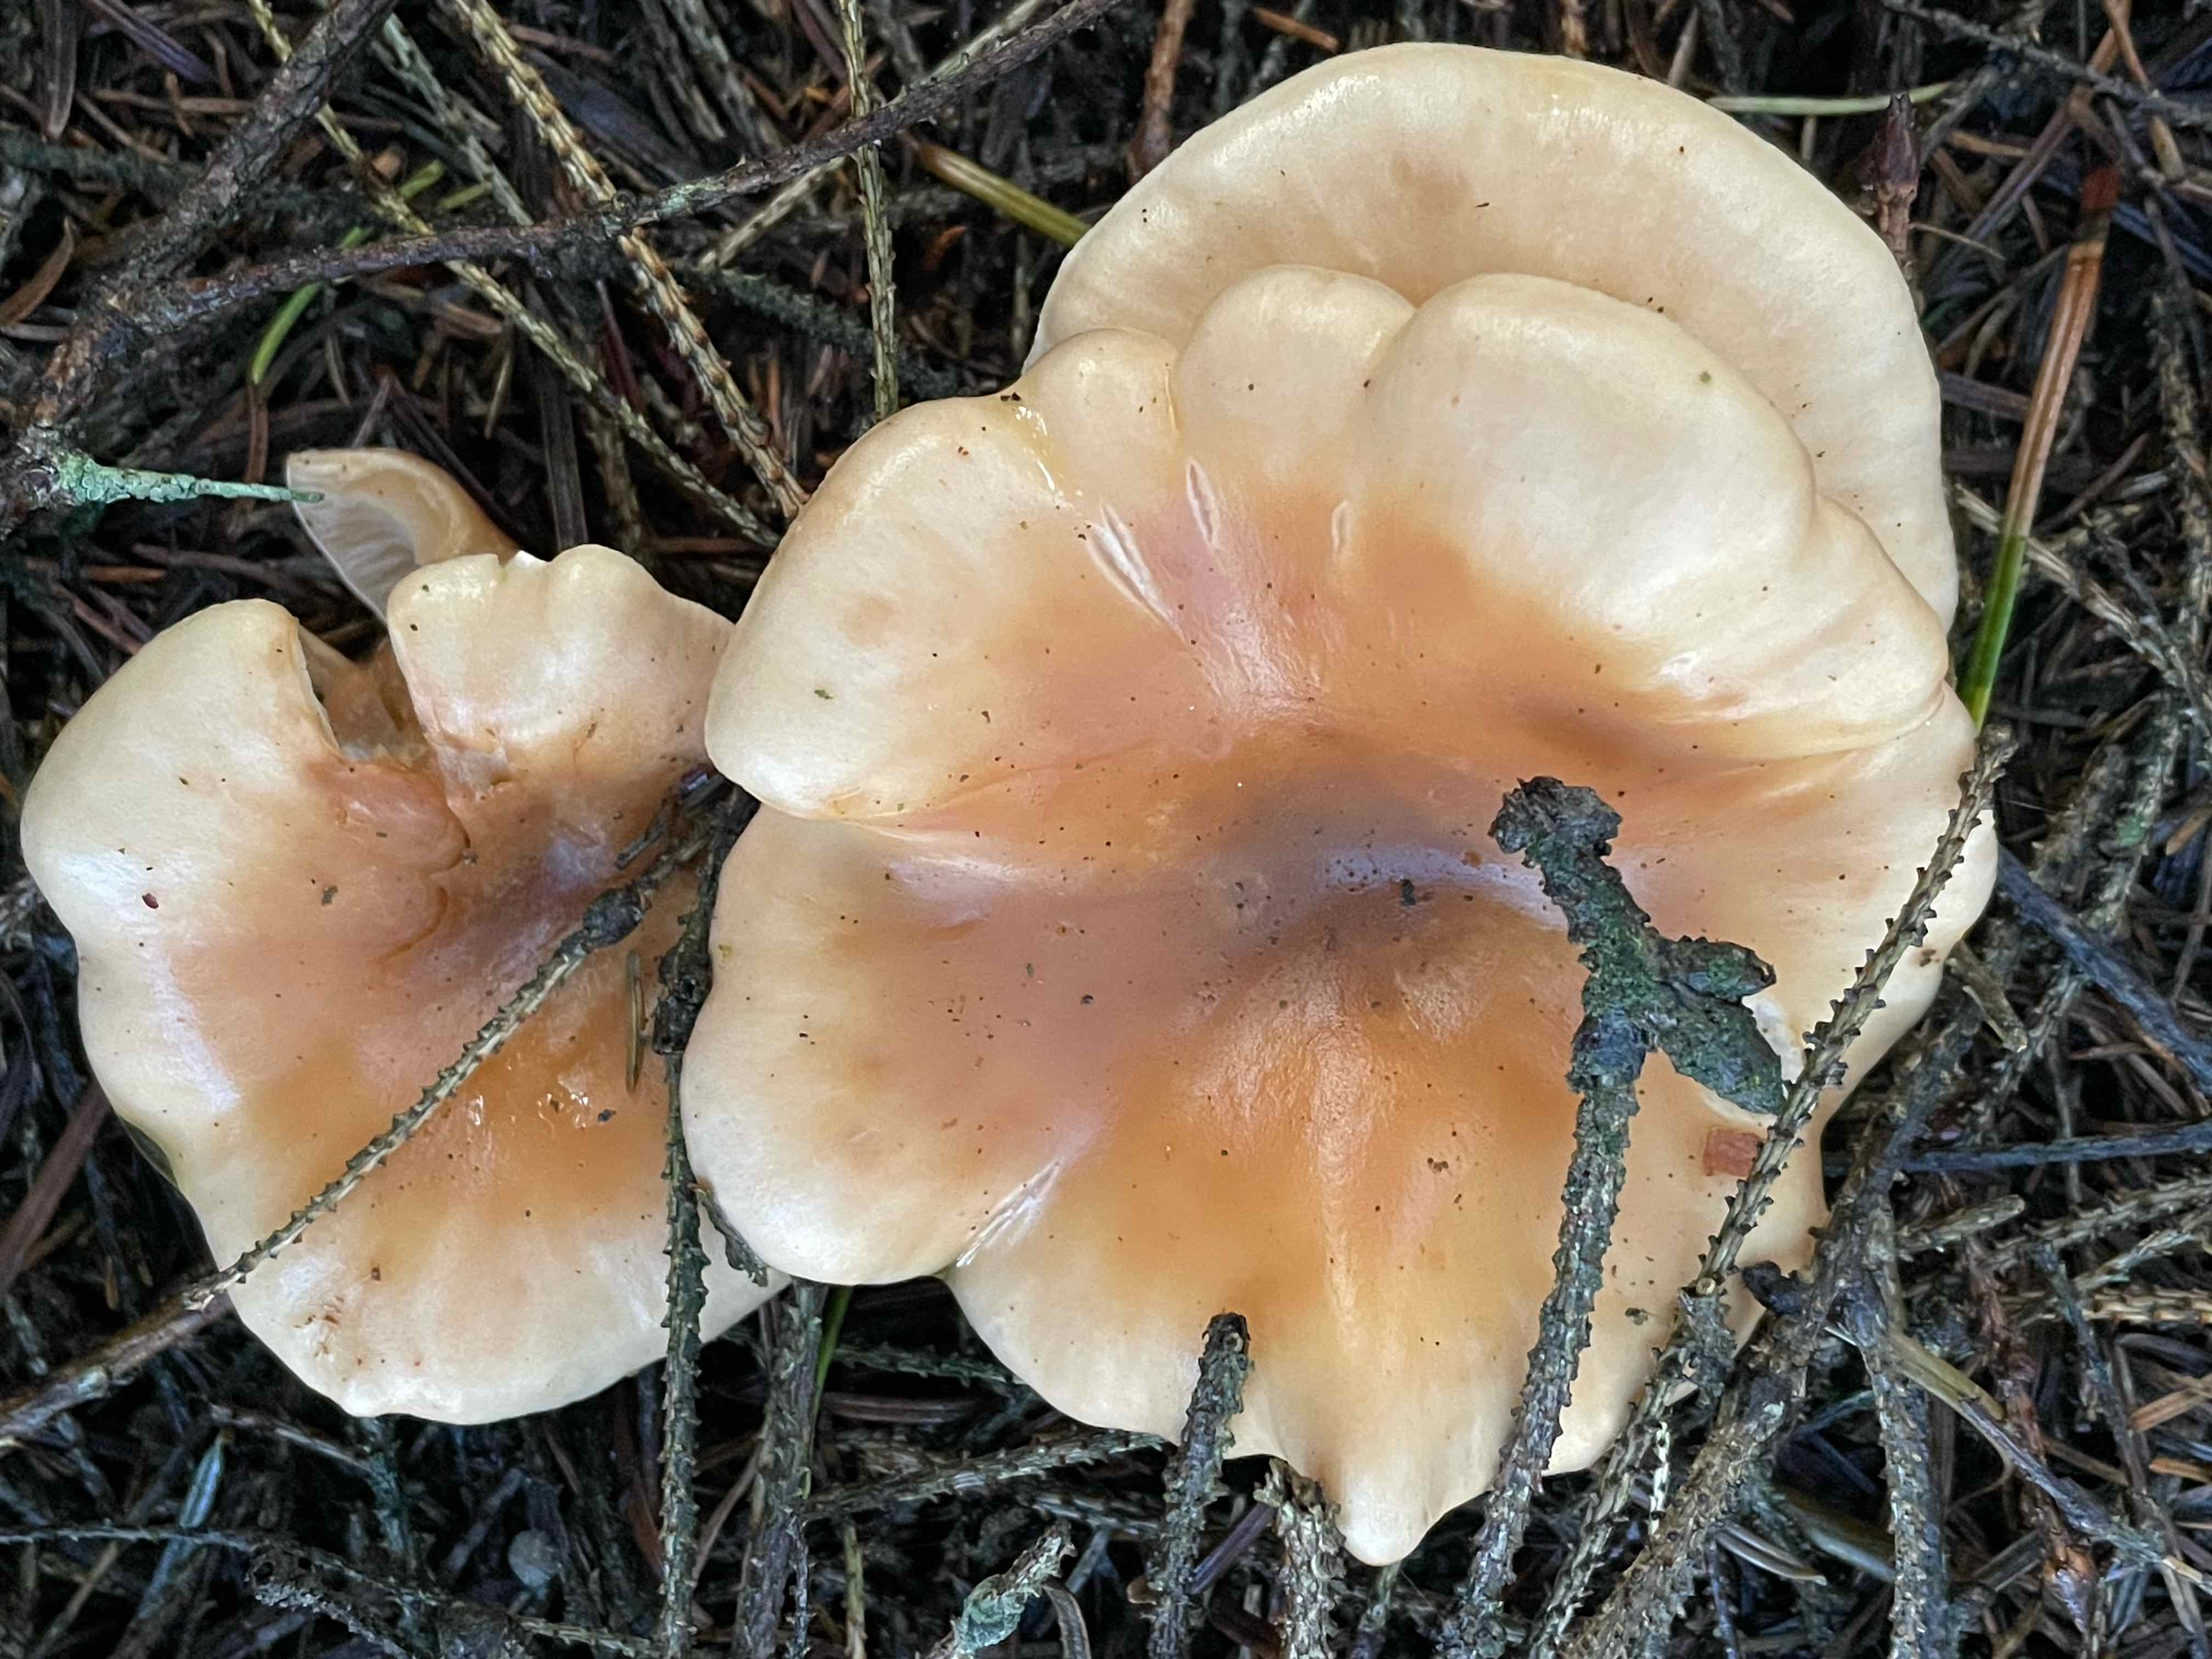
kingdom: Fungi
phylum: Basidiomycota
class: Agaricomycetes
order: Agaricales
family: Tricholomataceae
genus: Paralepista
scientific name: Paralepista flaccida
